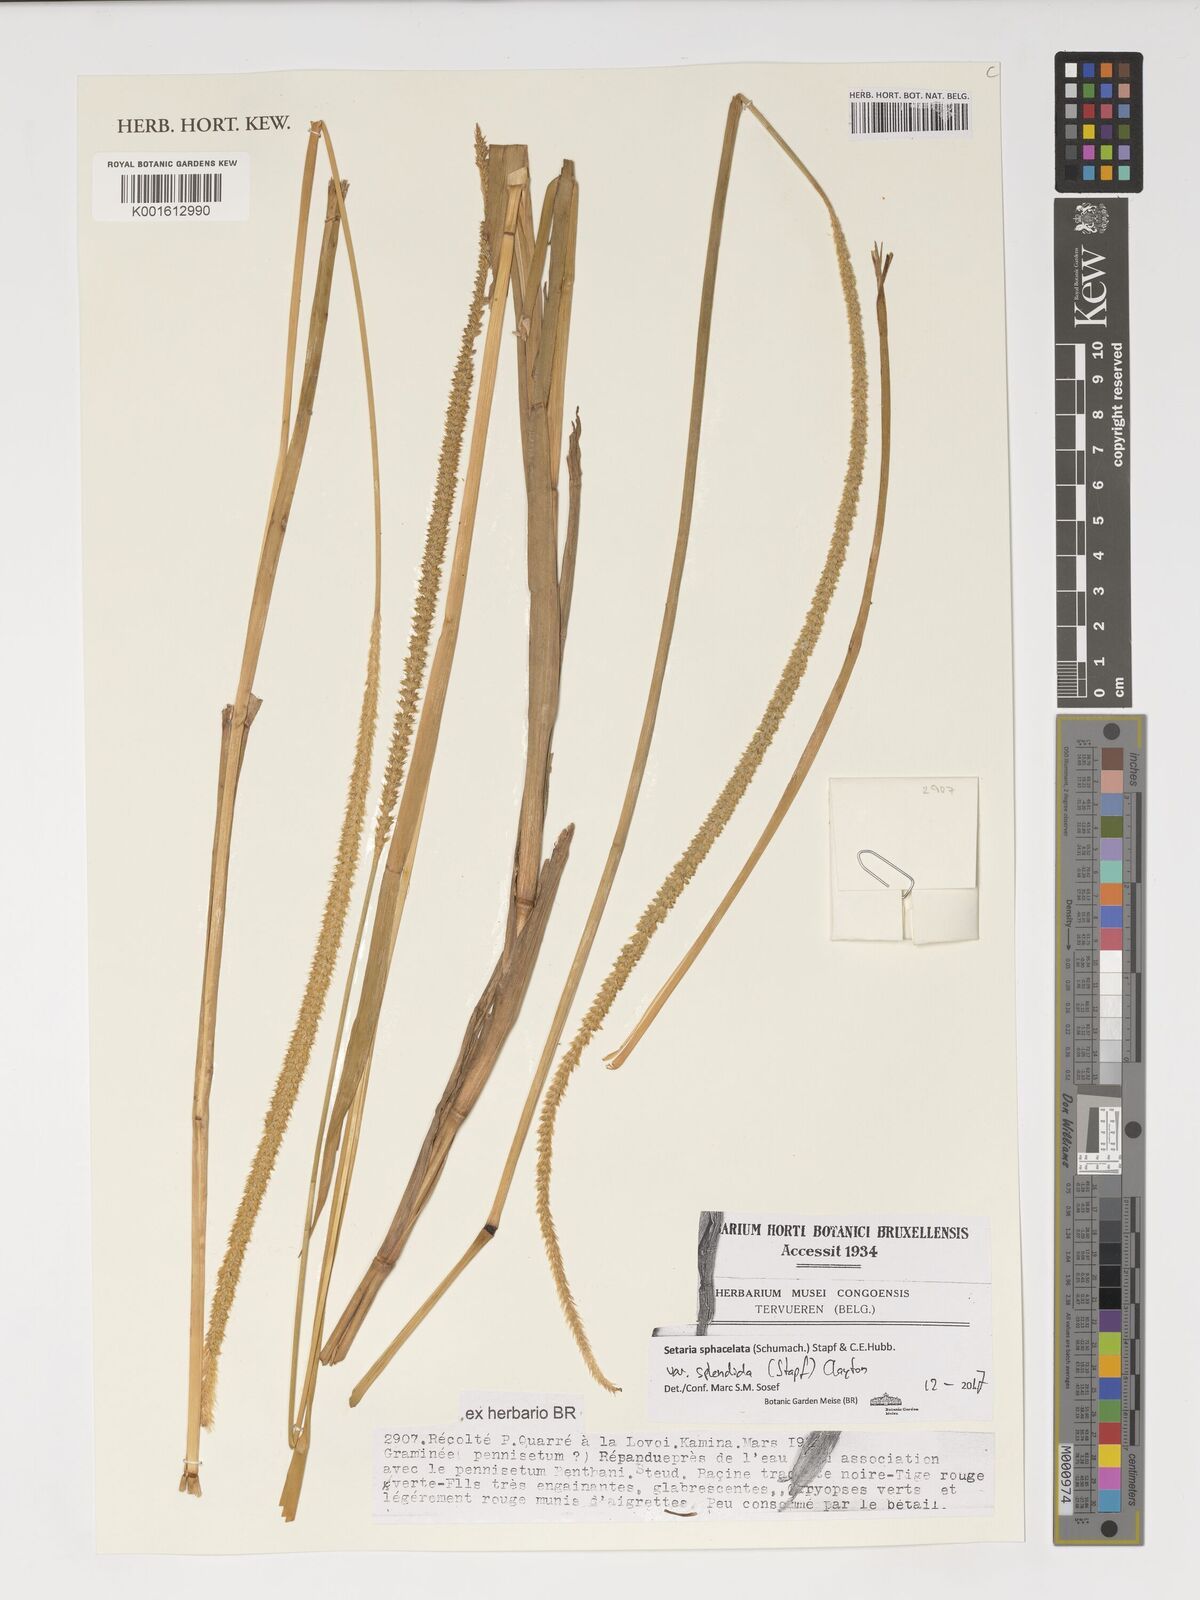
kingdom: Plantae
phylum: Tracheophyta
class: Liliopsida
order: Poales
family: Poaceae
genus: Setaria
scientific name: Setaria sphacelata
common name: African bristlegrass
